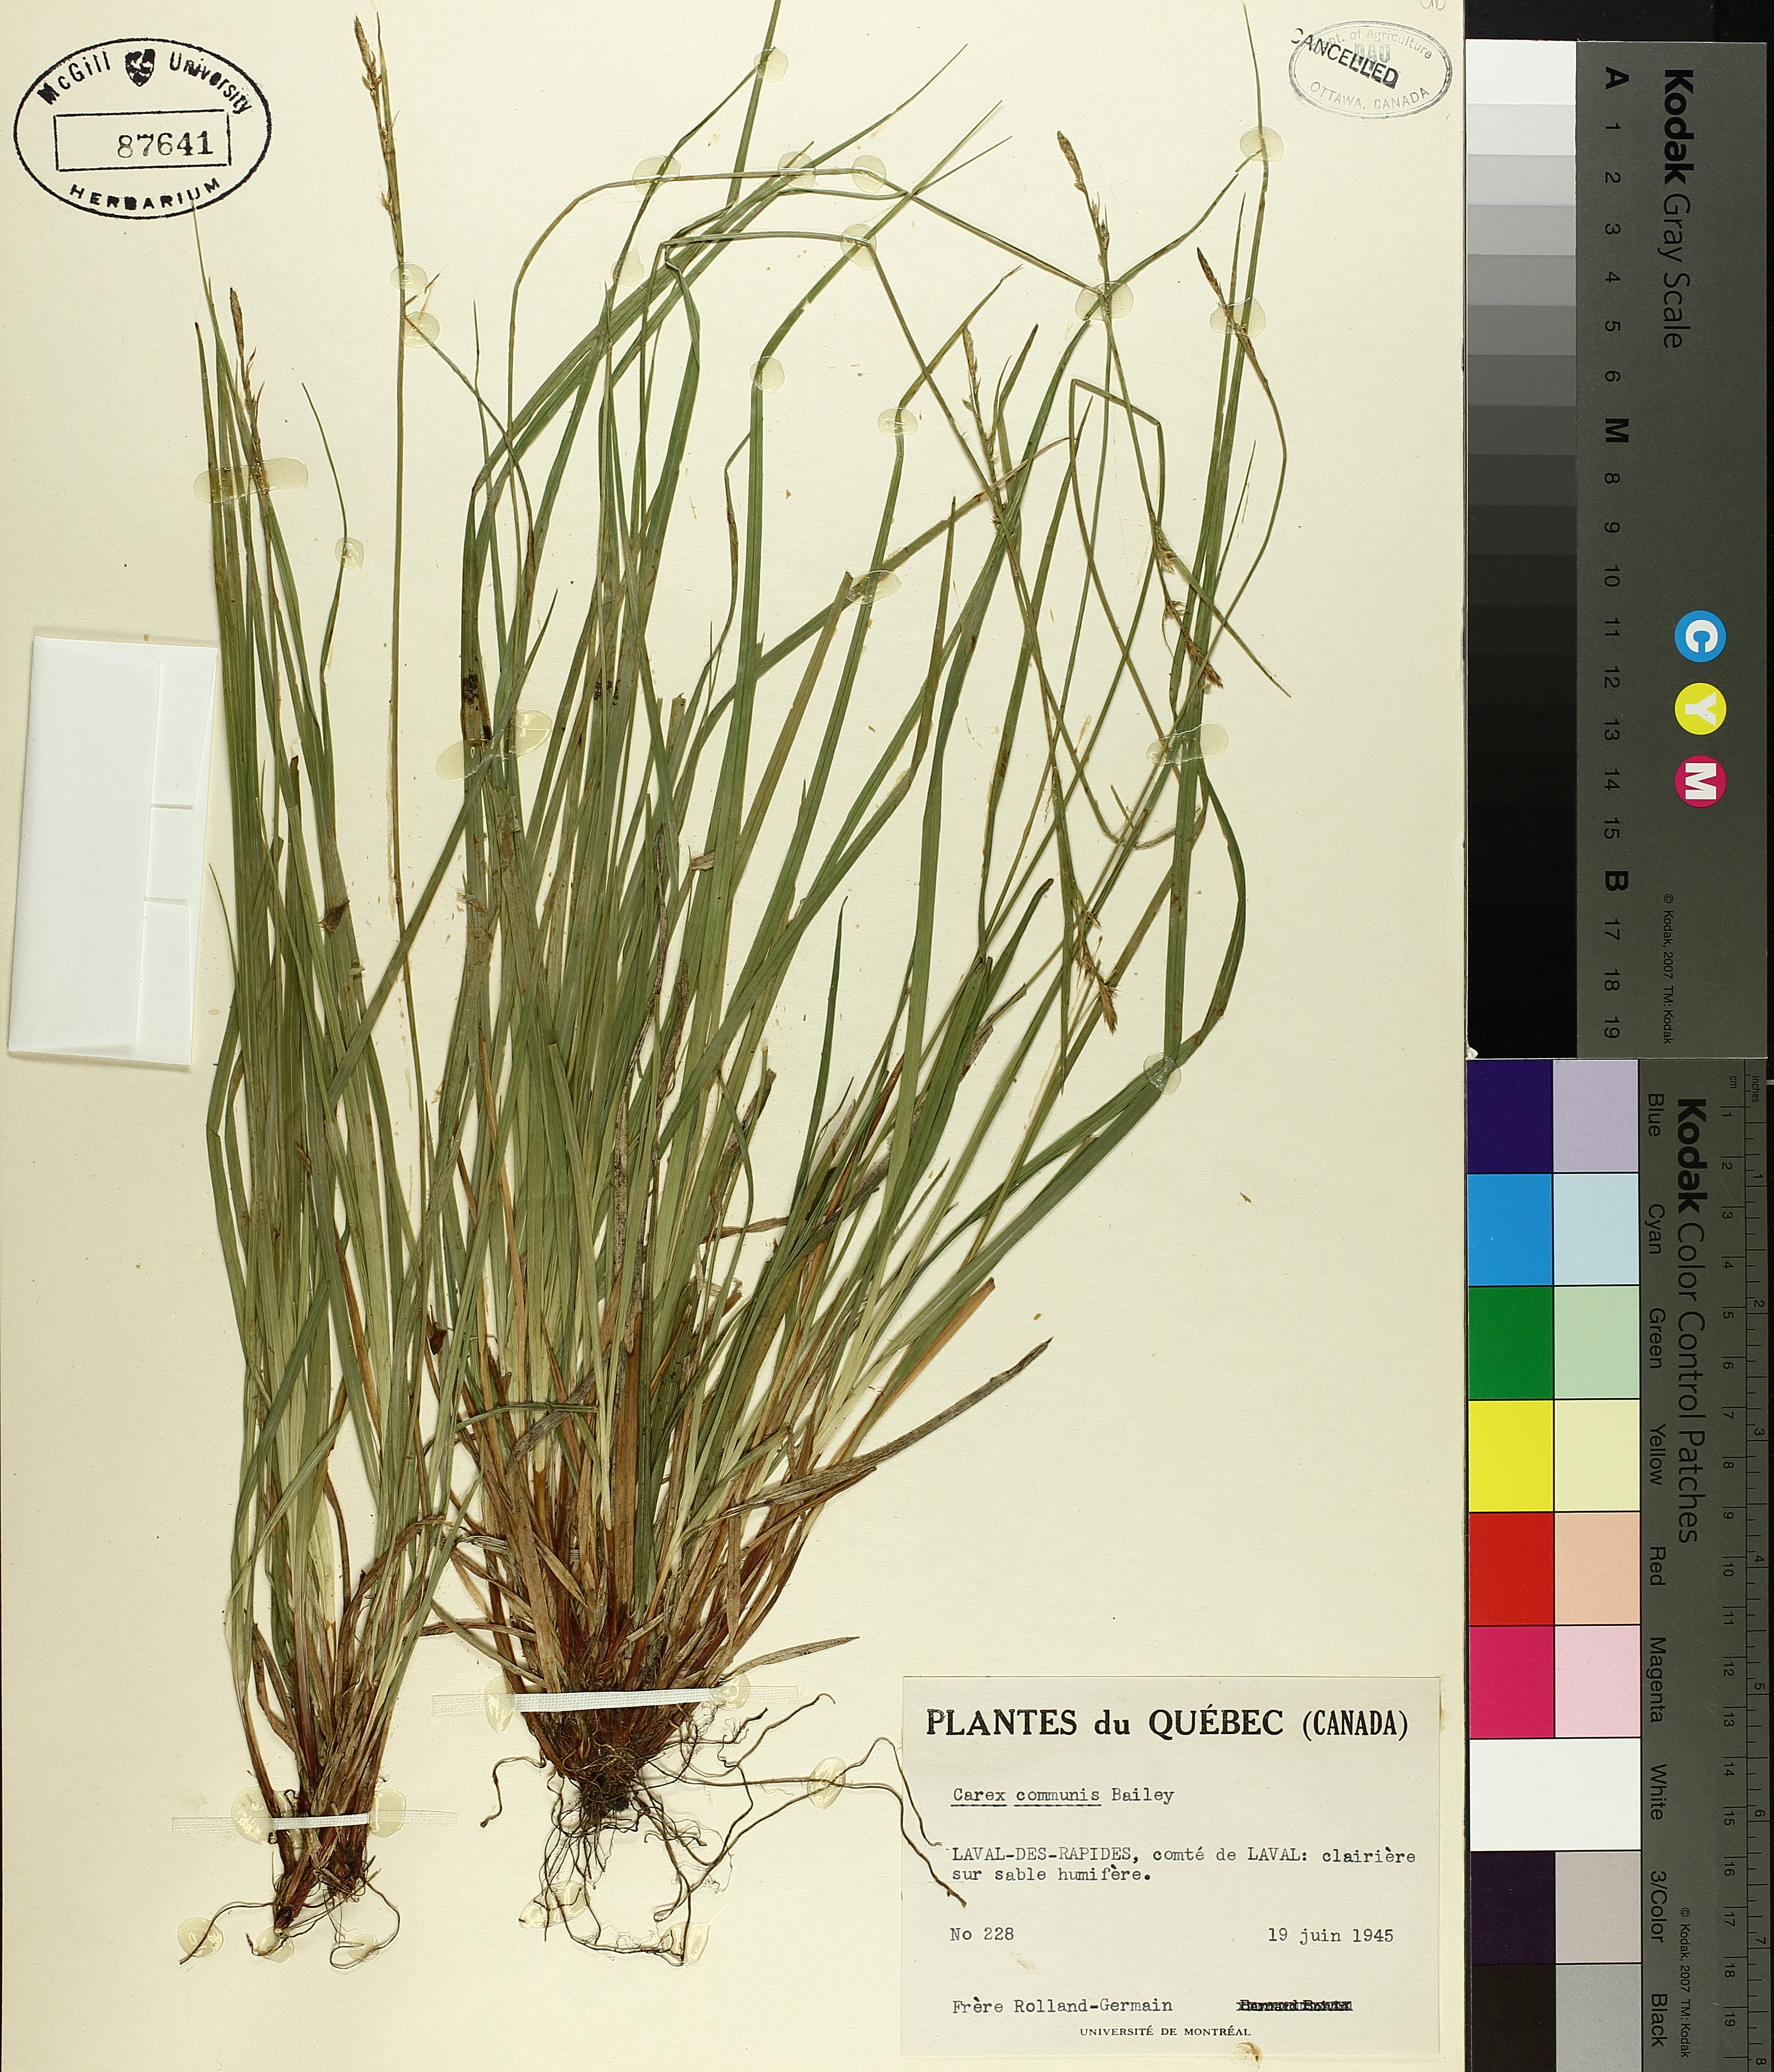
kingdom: Plantae
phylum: Tracheophyta
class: Liliopsida
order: Poales
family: Cyperaceae
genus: Carex
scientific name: Carex communis
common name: Colonial oak sedge
